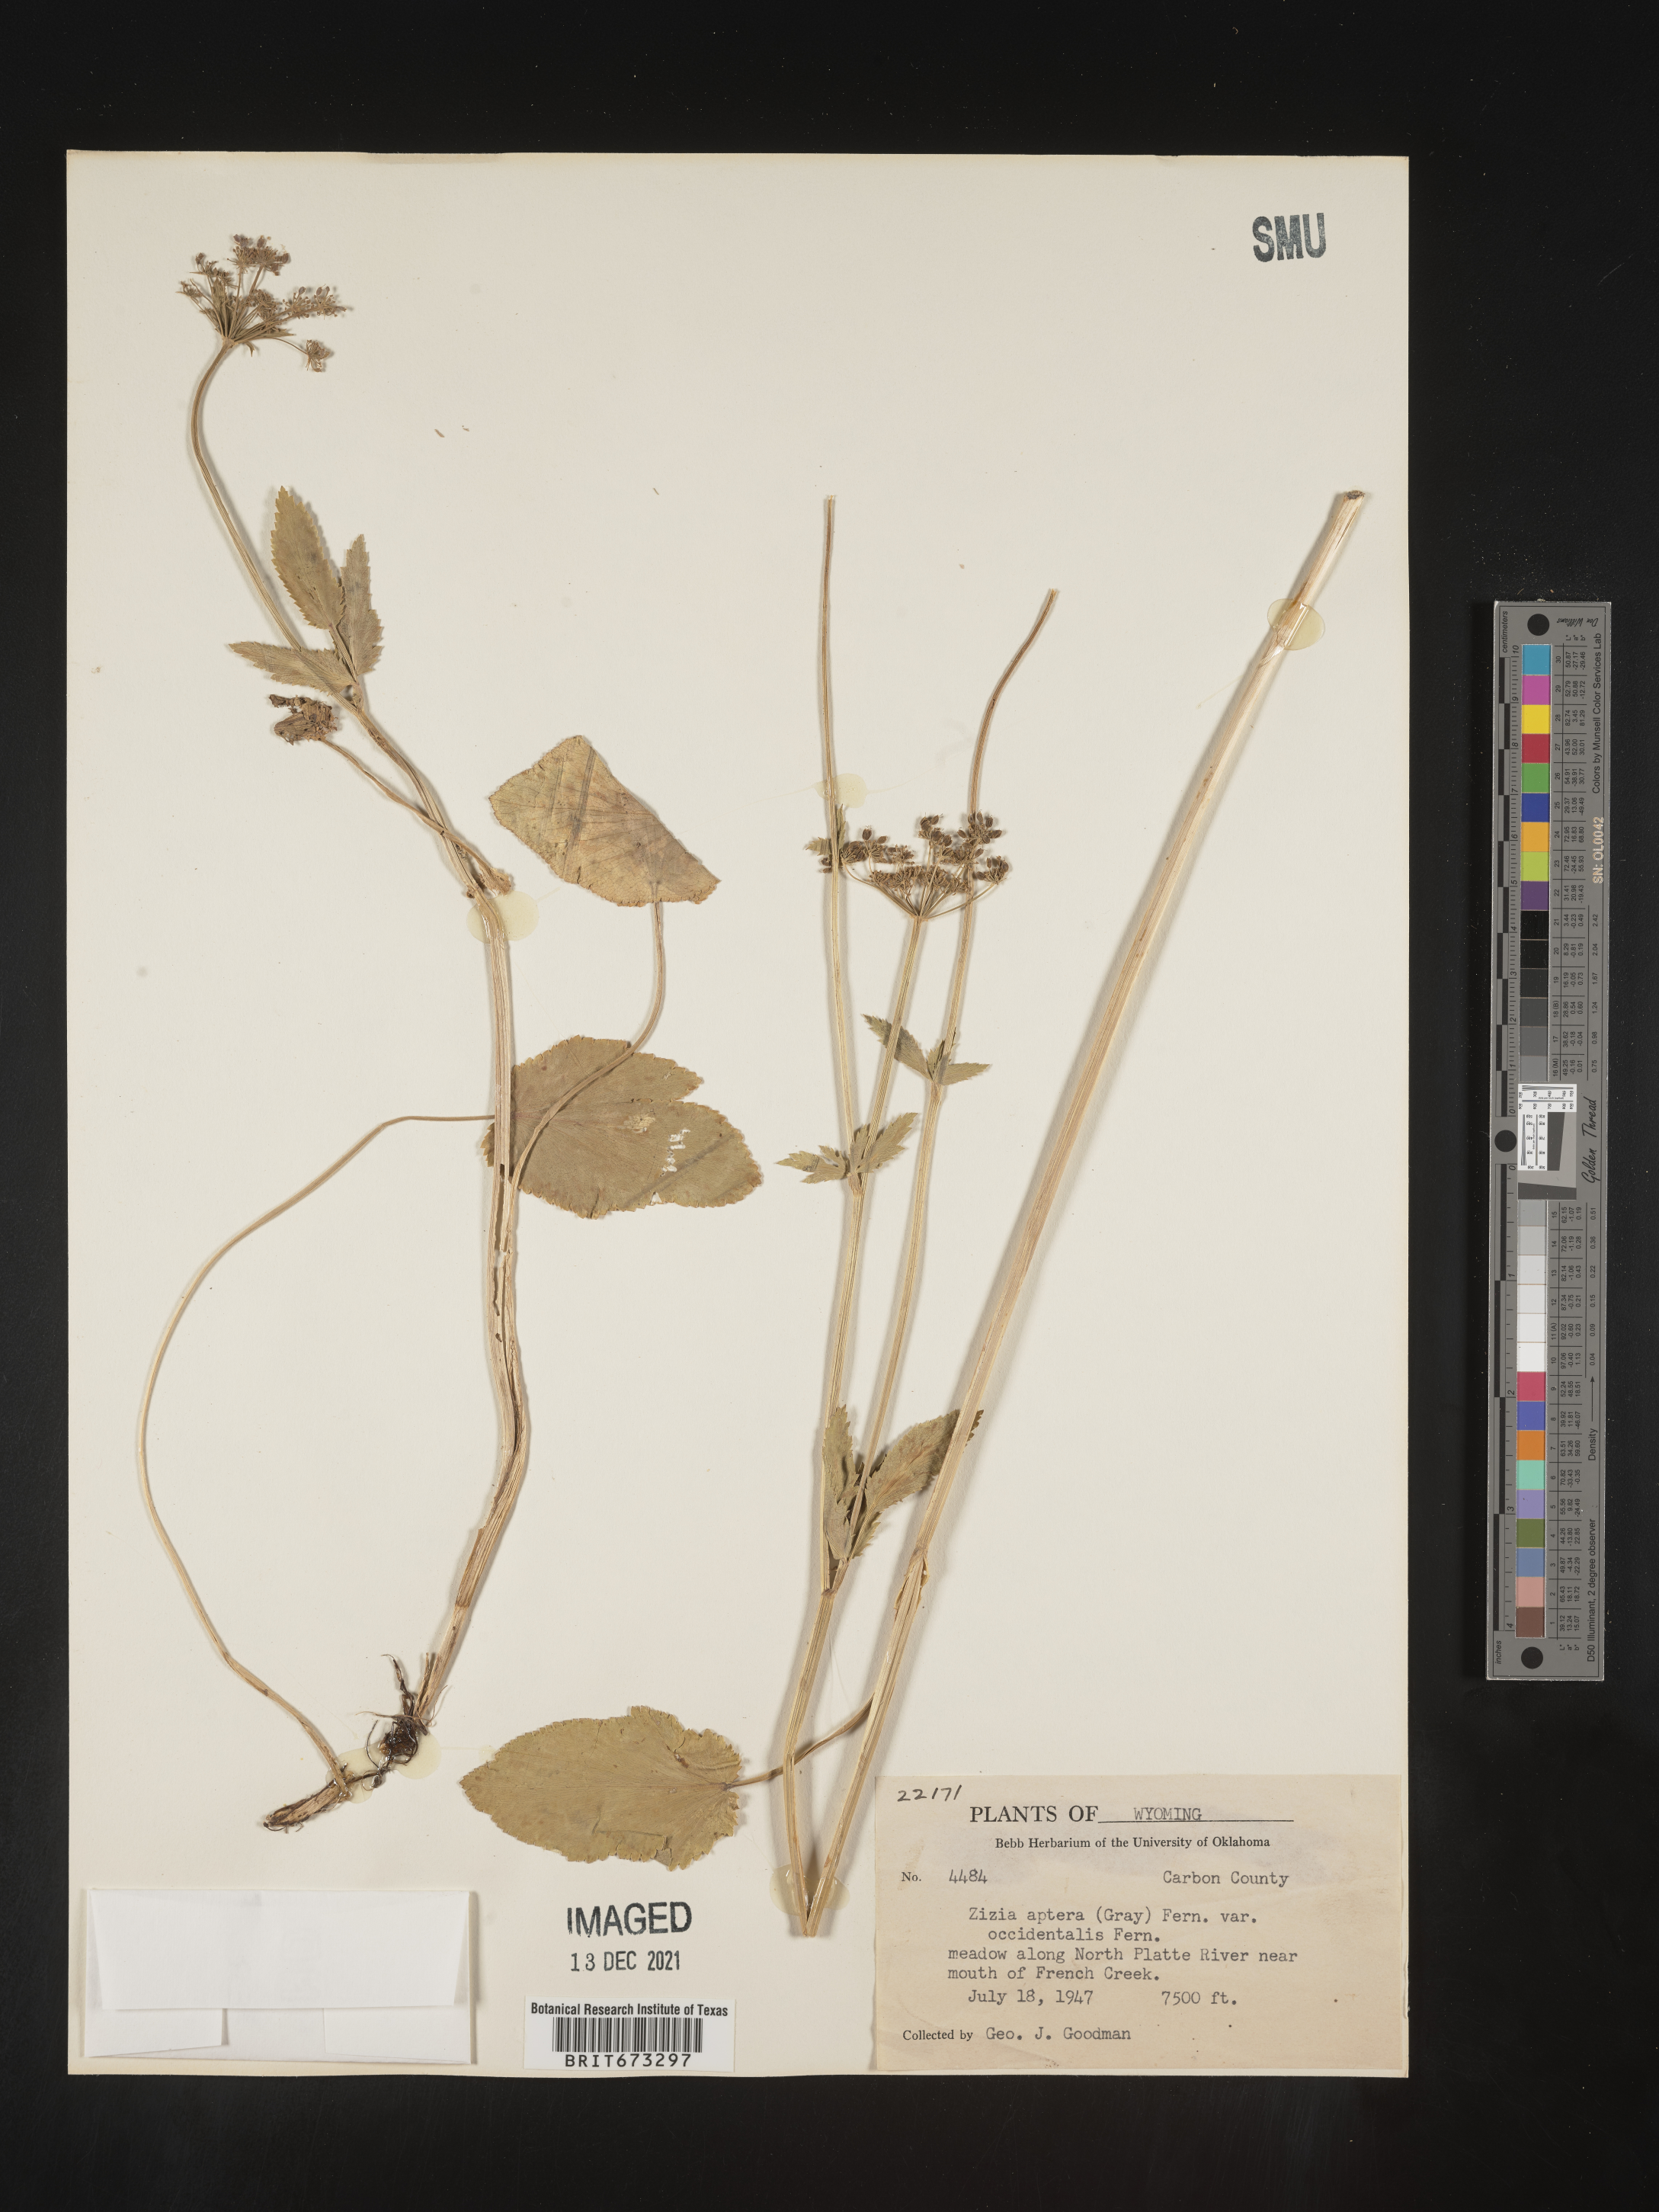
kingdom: Plantae
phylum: Tracheophyta
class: Magnoliopsida
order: Apiales
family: Apiaceae
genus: Zizia
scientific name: Zizia aptera
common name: Heart-leaved alexanders
